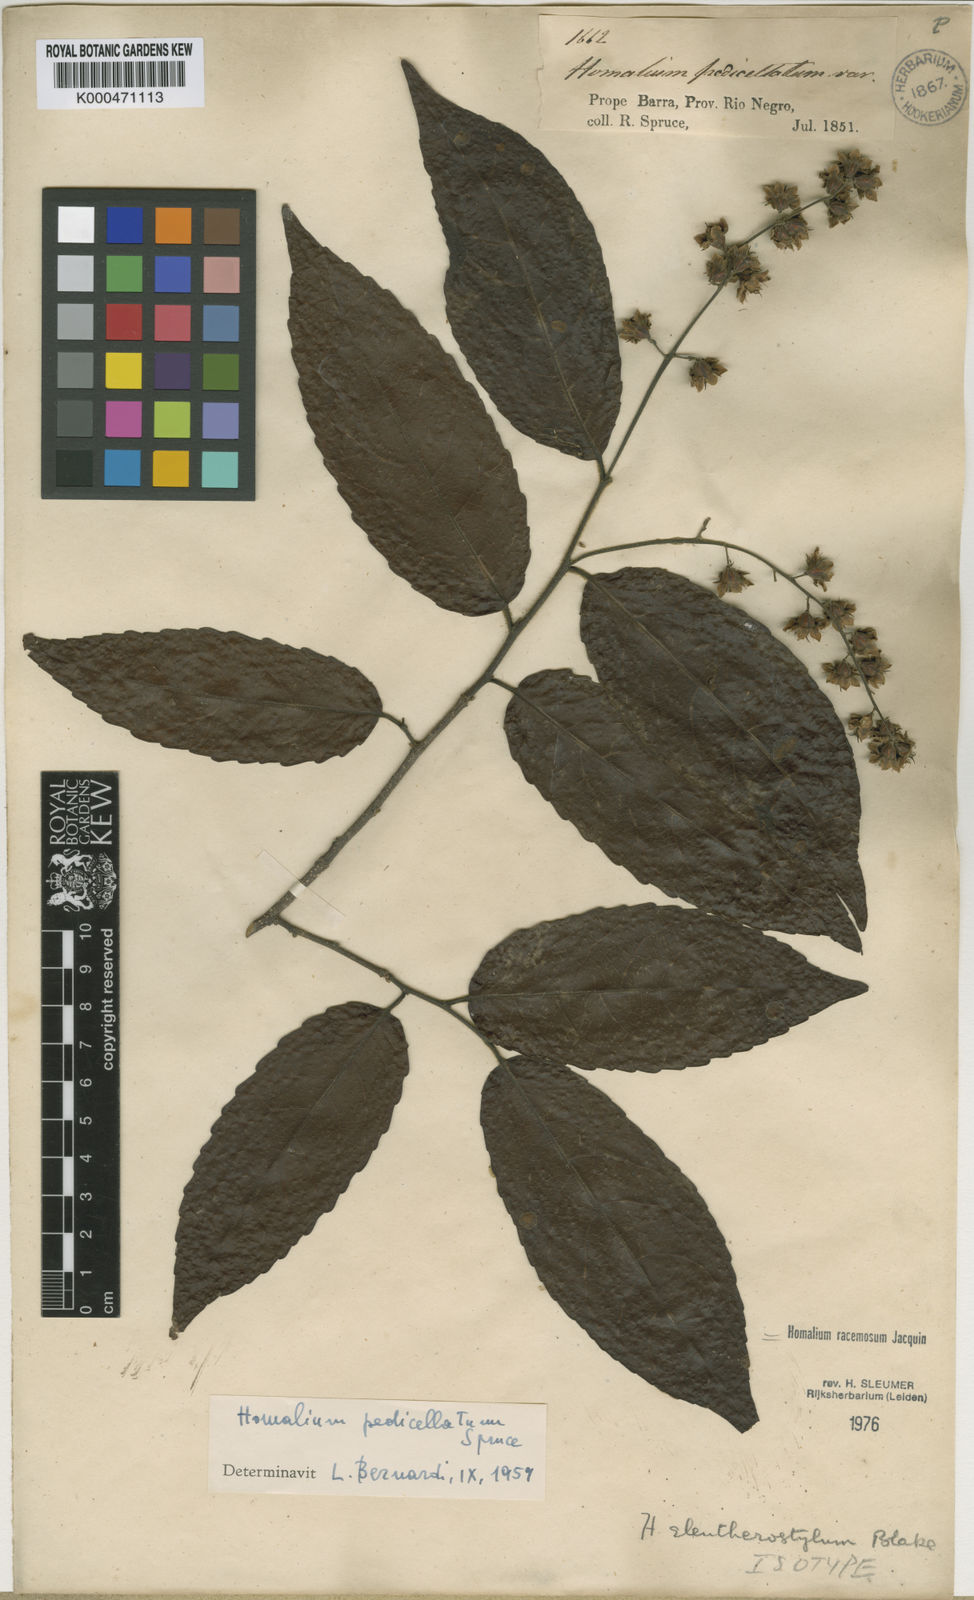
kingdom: Plantae
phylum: Tracheophyta
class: Magnoliopsida
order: Malpighiales
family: Salicaceae
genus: Homalium
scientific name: Homalium racemosum
